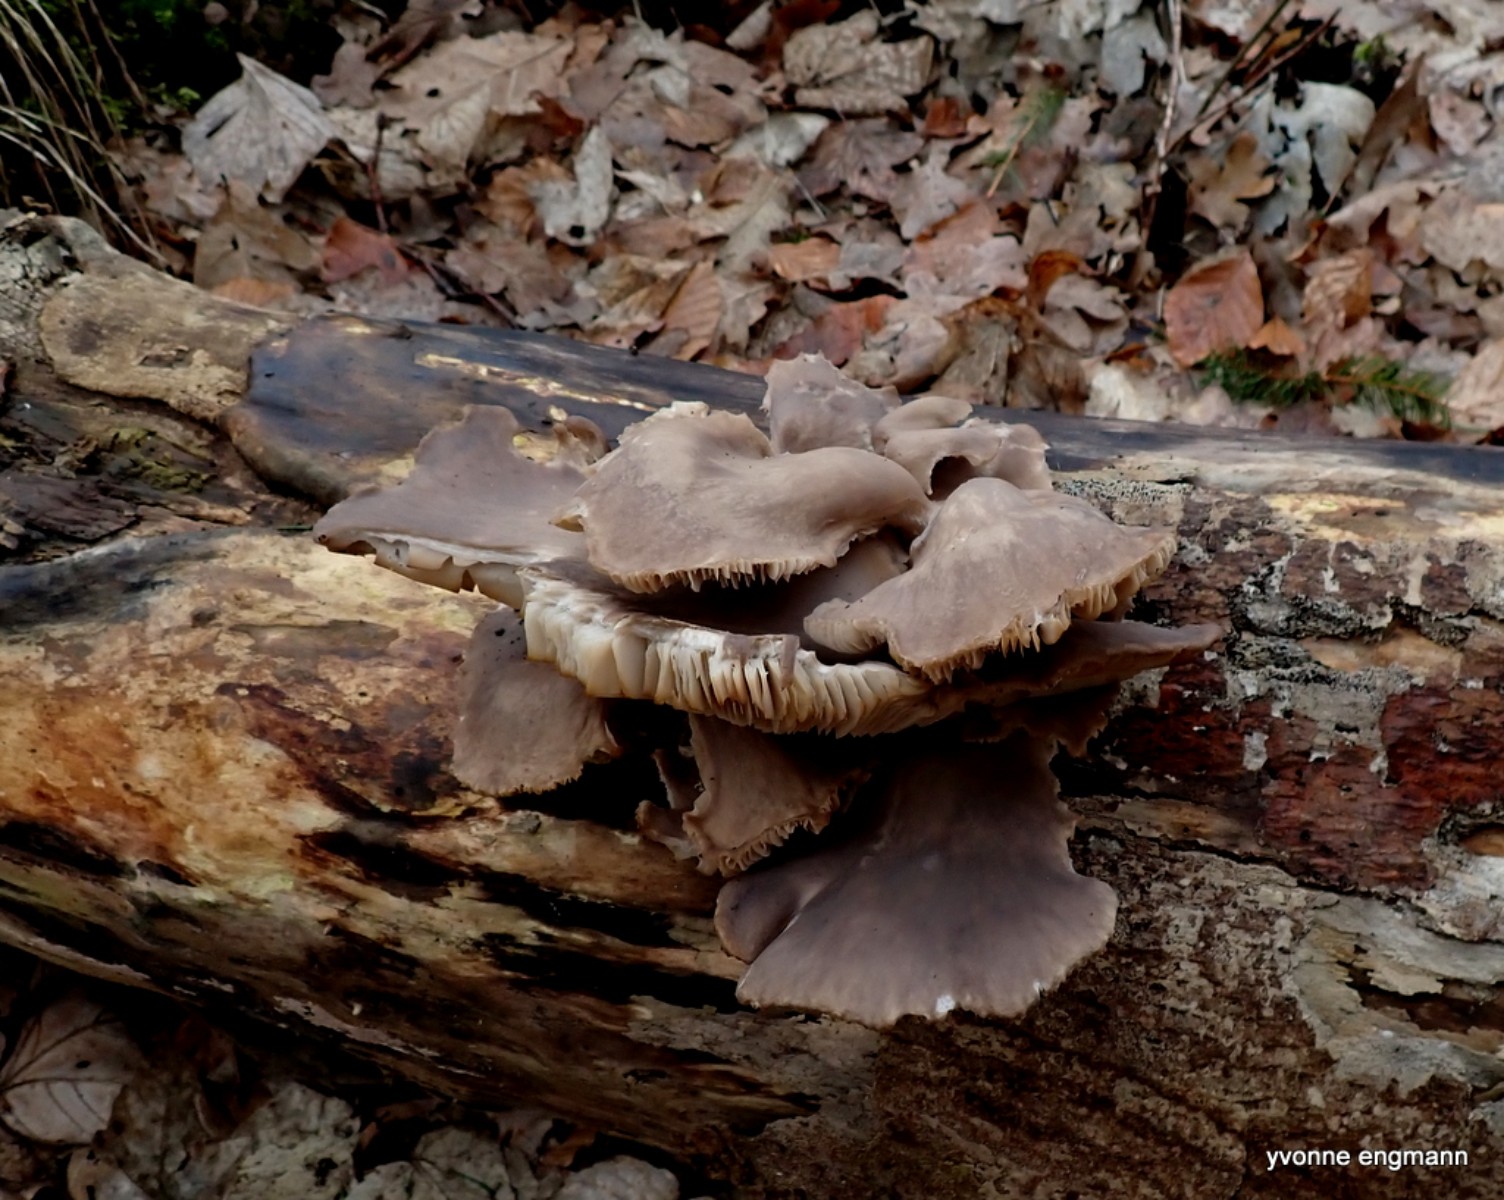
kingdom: Fungi
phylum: Basidiomycota
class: Agaricomycetes
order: Agaricales
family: Pleurotaceae
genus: Pleurotus
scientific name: Pleurotus ostreatus
